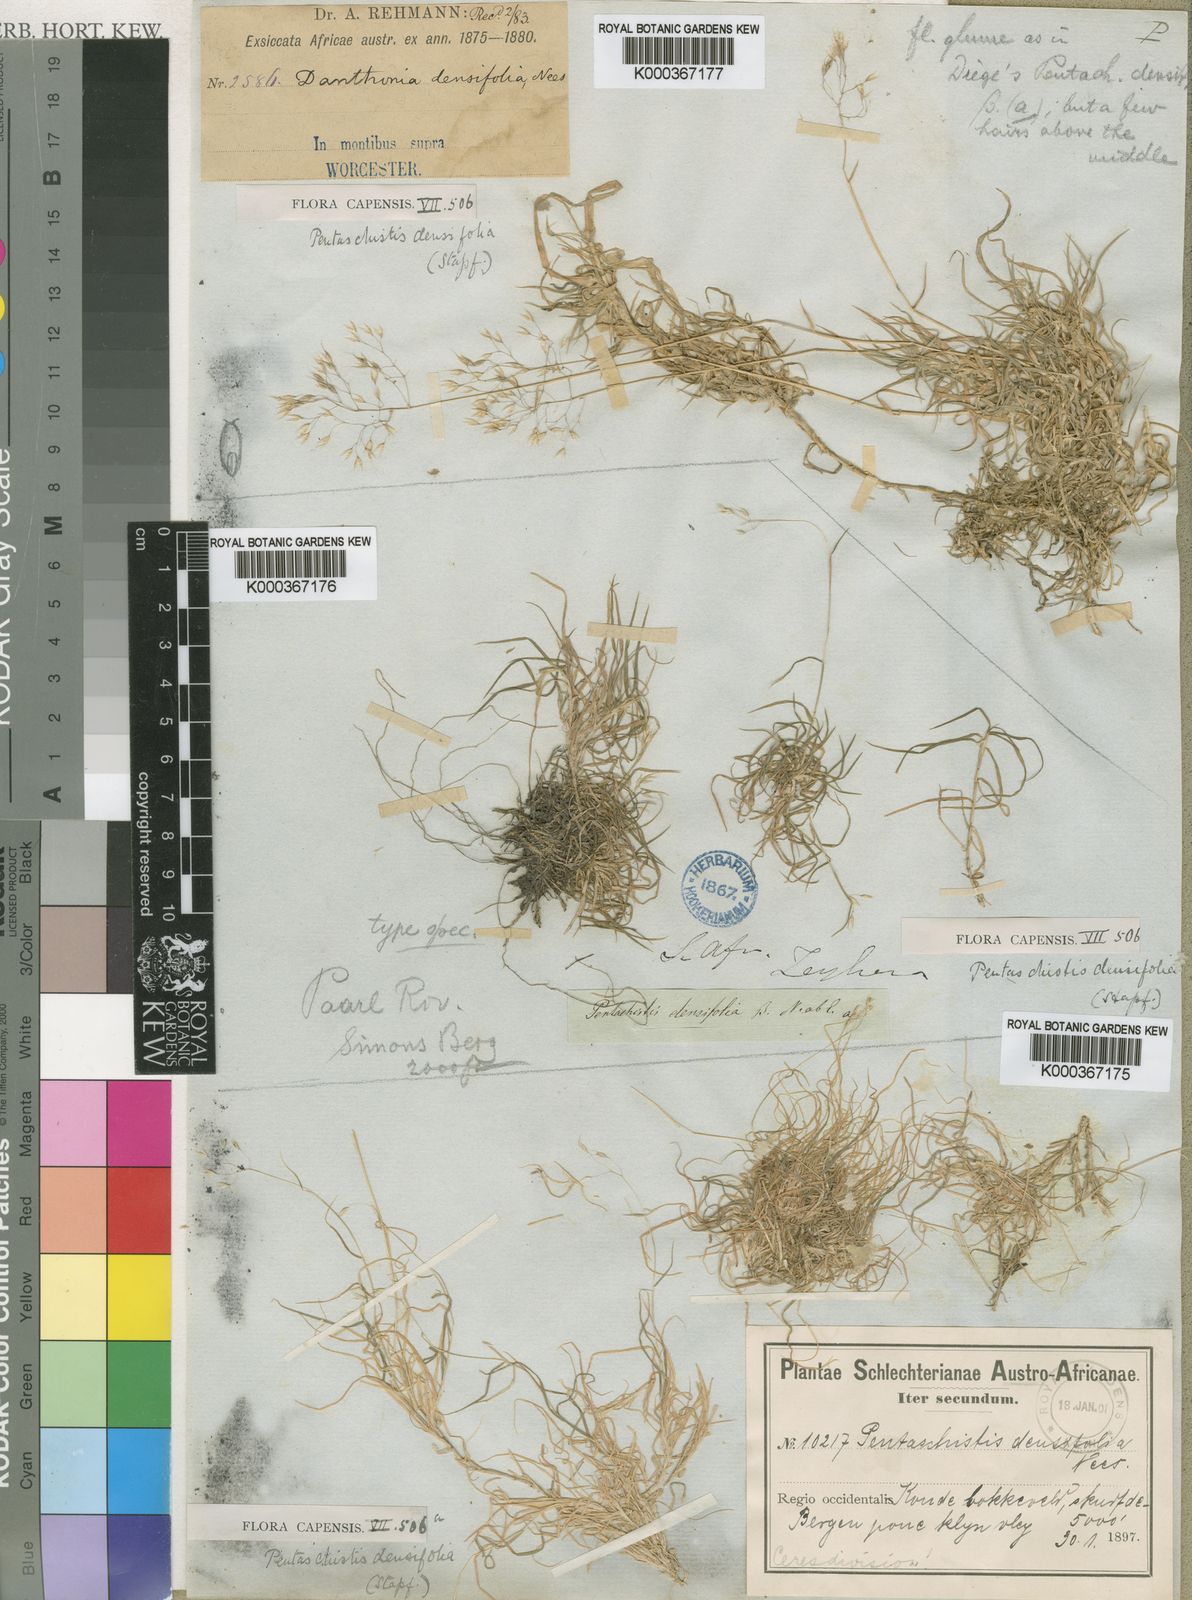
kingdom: Plantae
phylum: Tracheophyta
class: Liliopsida
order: Poales
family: Poaceae
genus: Pentameris
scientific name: Pentameris densifolia
